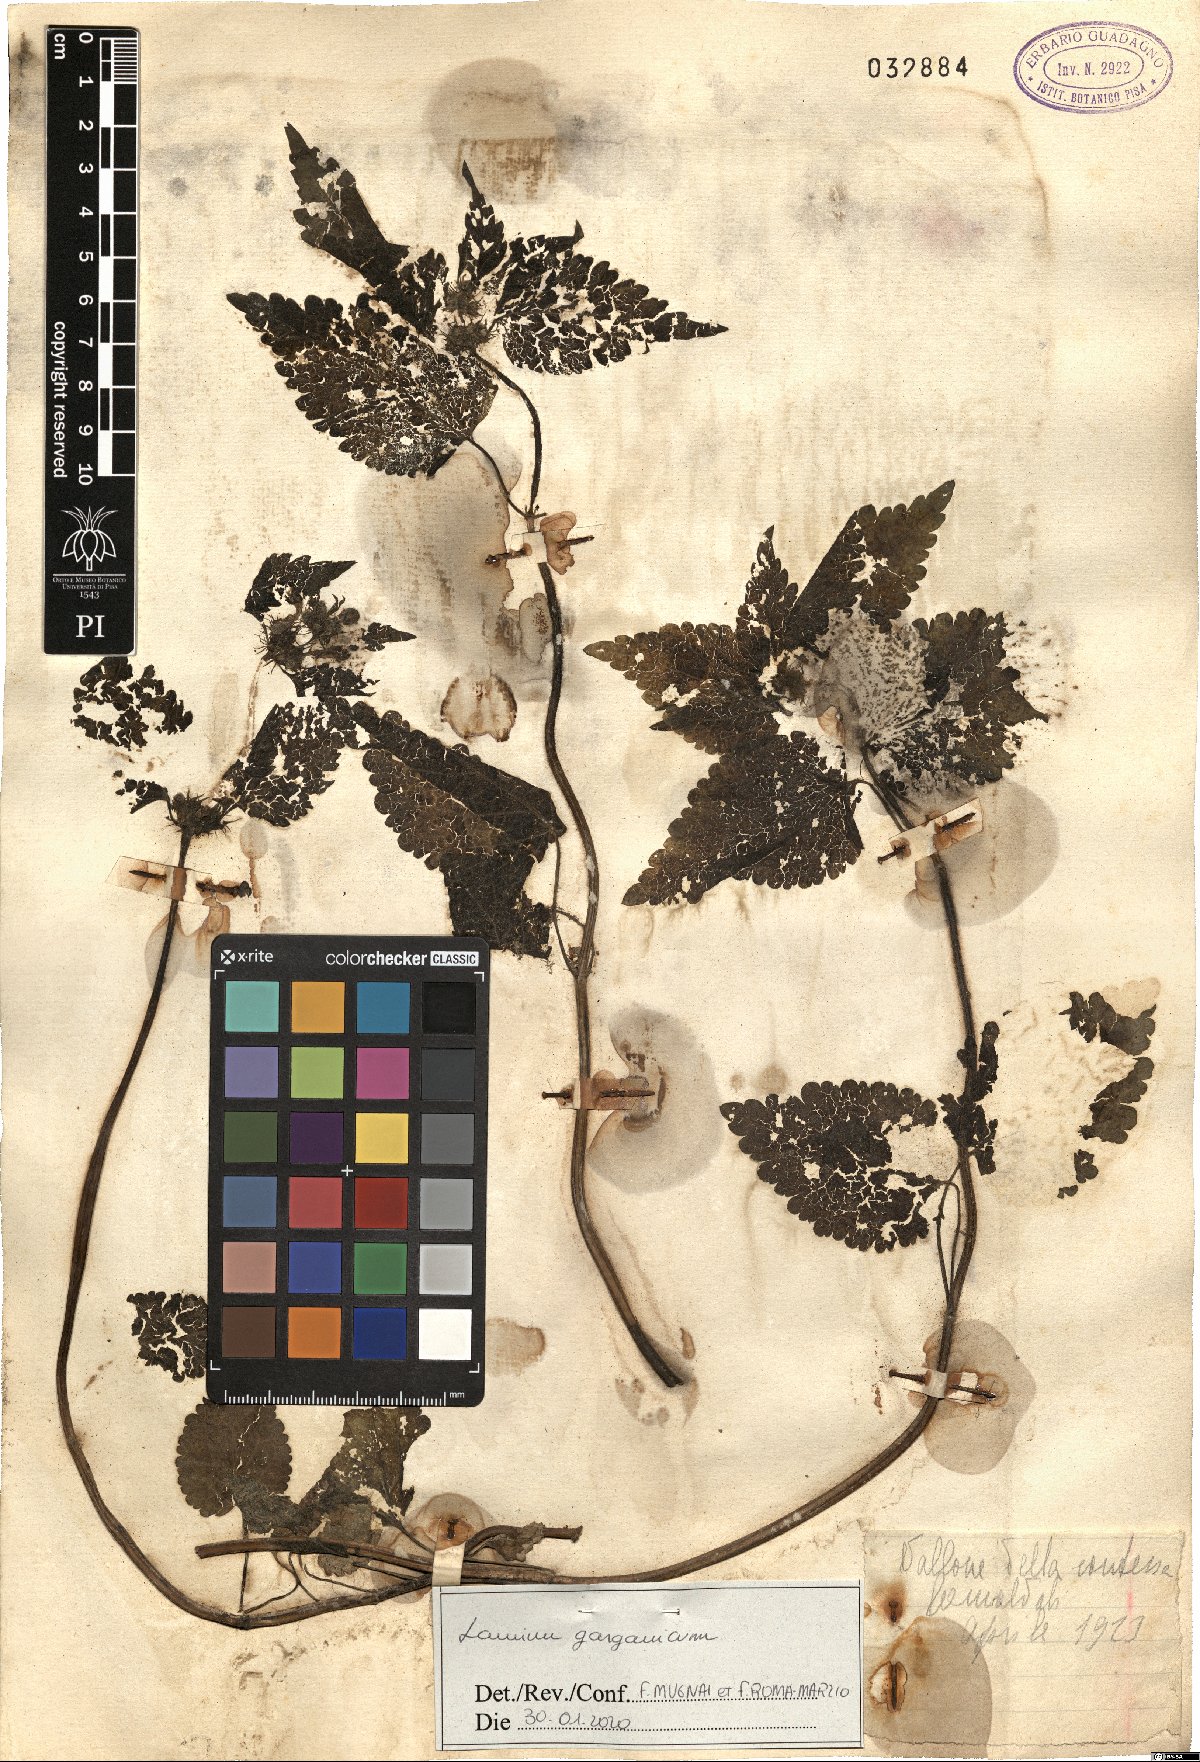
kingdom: Plantae
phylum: Tracheophyta
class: Magnoliopsida
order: Lamiales
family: Lamiaceae
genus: Lamium
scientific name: Lamium garganicum
